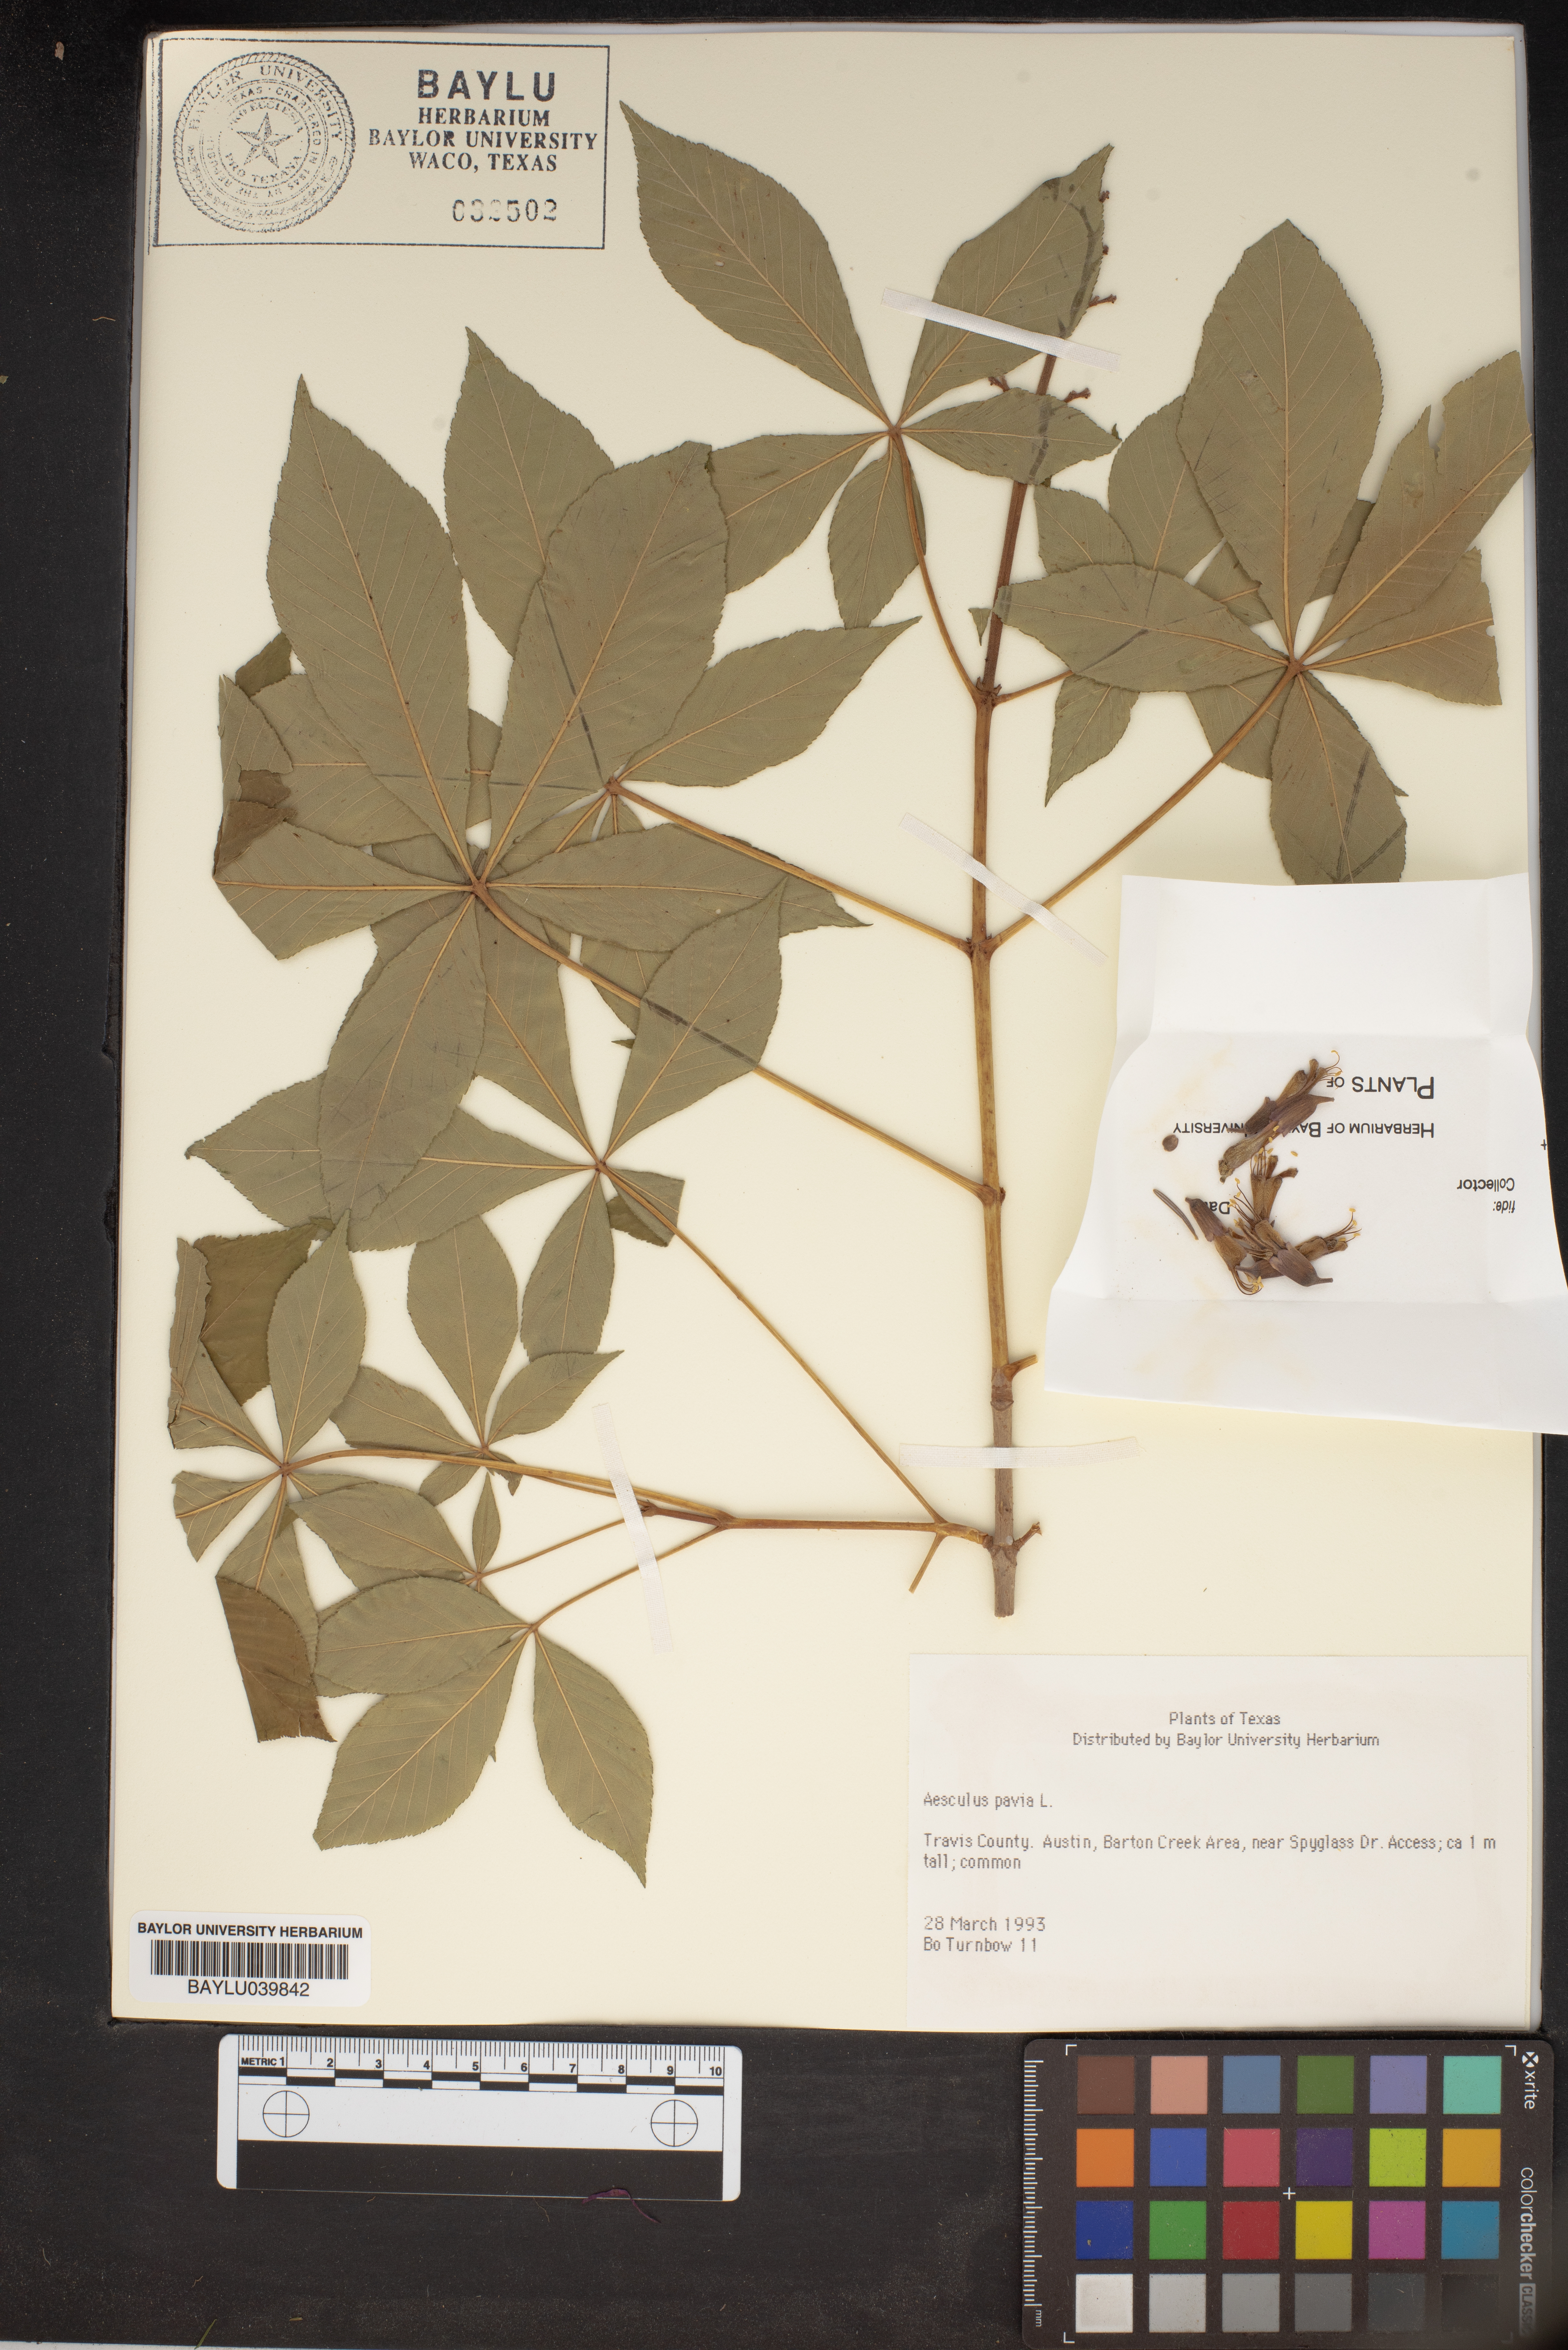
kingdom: Plantae
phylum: Tracheophyta
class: Magnoliopsida
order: Sapindales
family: Sapindaceae
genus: Aesculus
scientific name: Aesculus pavia
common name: Red buckeye
